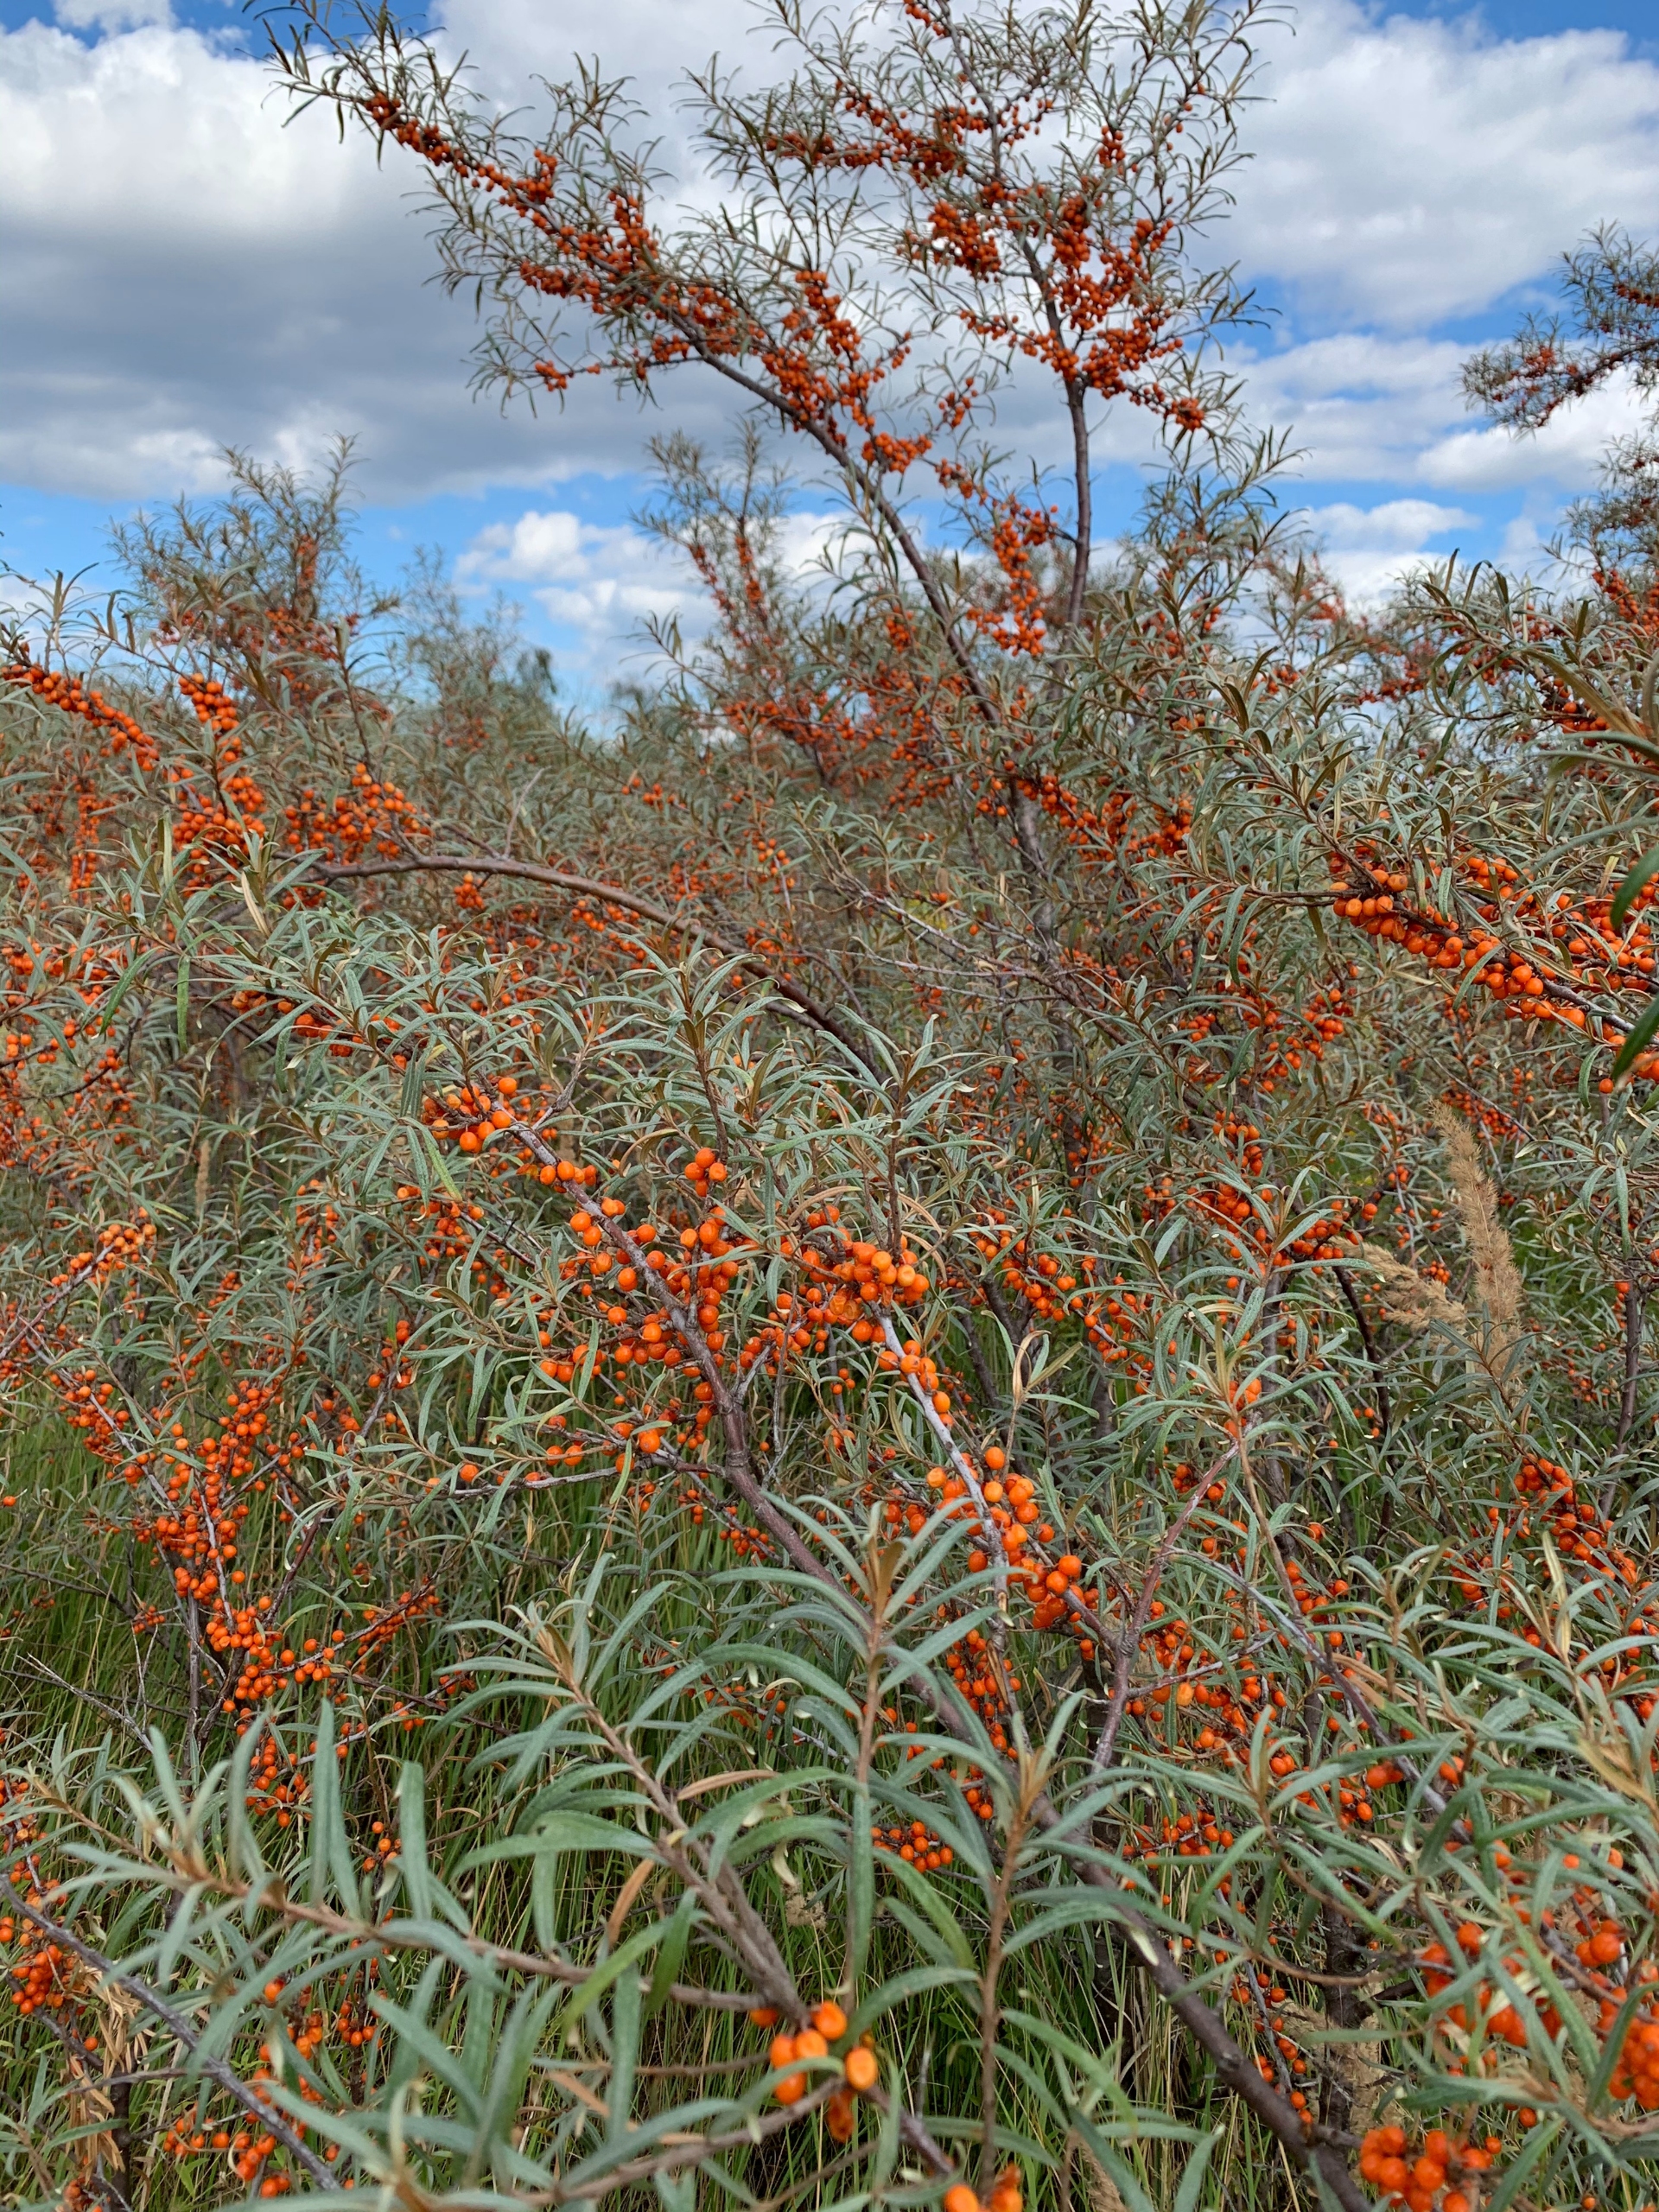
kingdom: Plantae
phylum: Tracheophyta
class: Magnoliopsida
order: Rosales
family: Elaeagnaceae
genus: Hippophae
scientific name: Hippophae rhamnoides
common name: Havtorn
